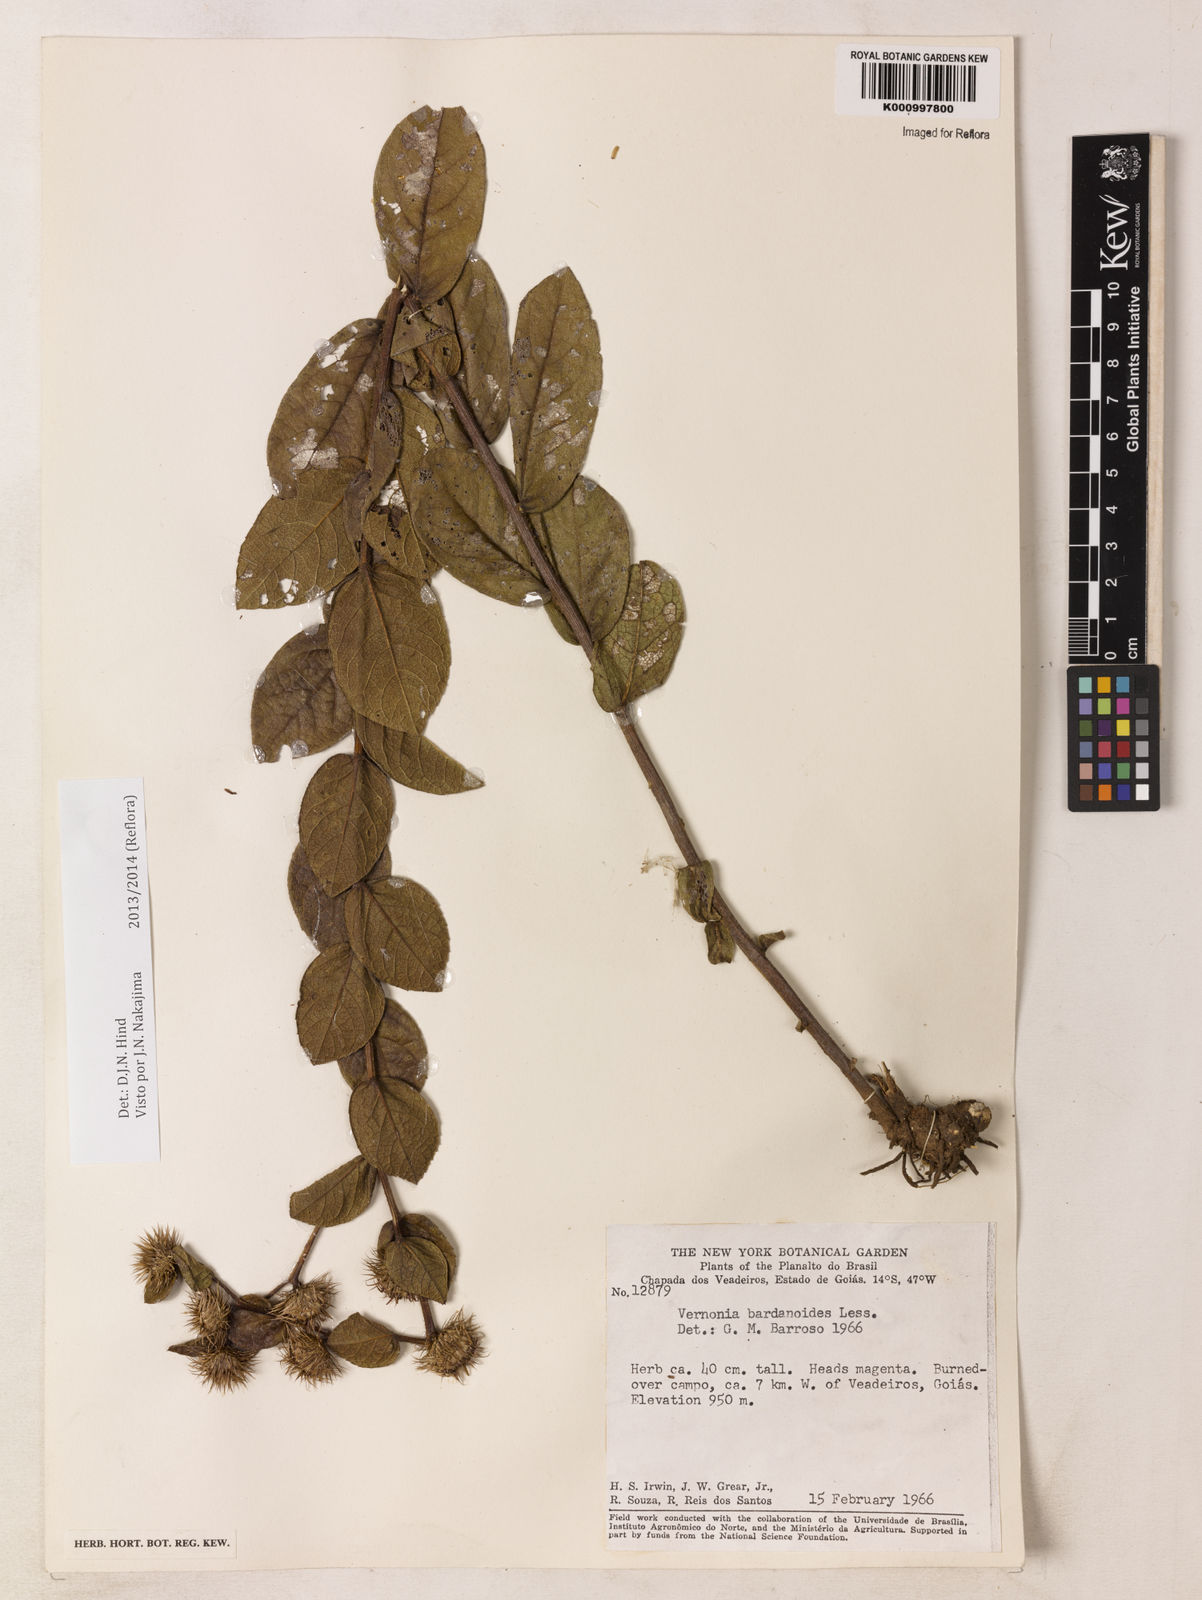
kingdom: Plantae
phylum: Tracheophyta
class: Magnoliopsida
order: Asterales
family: Asteraceae
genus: Lessingianthus
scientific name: Lessingianthus bardanioides
